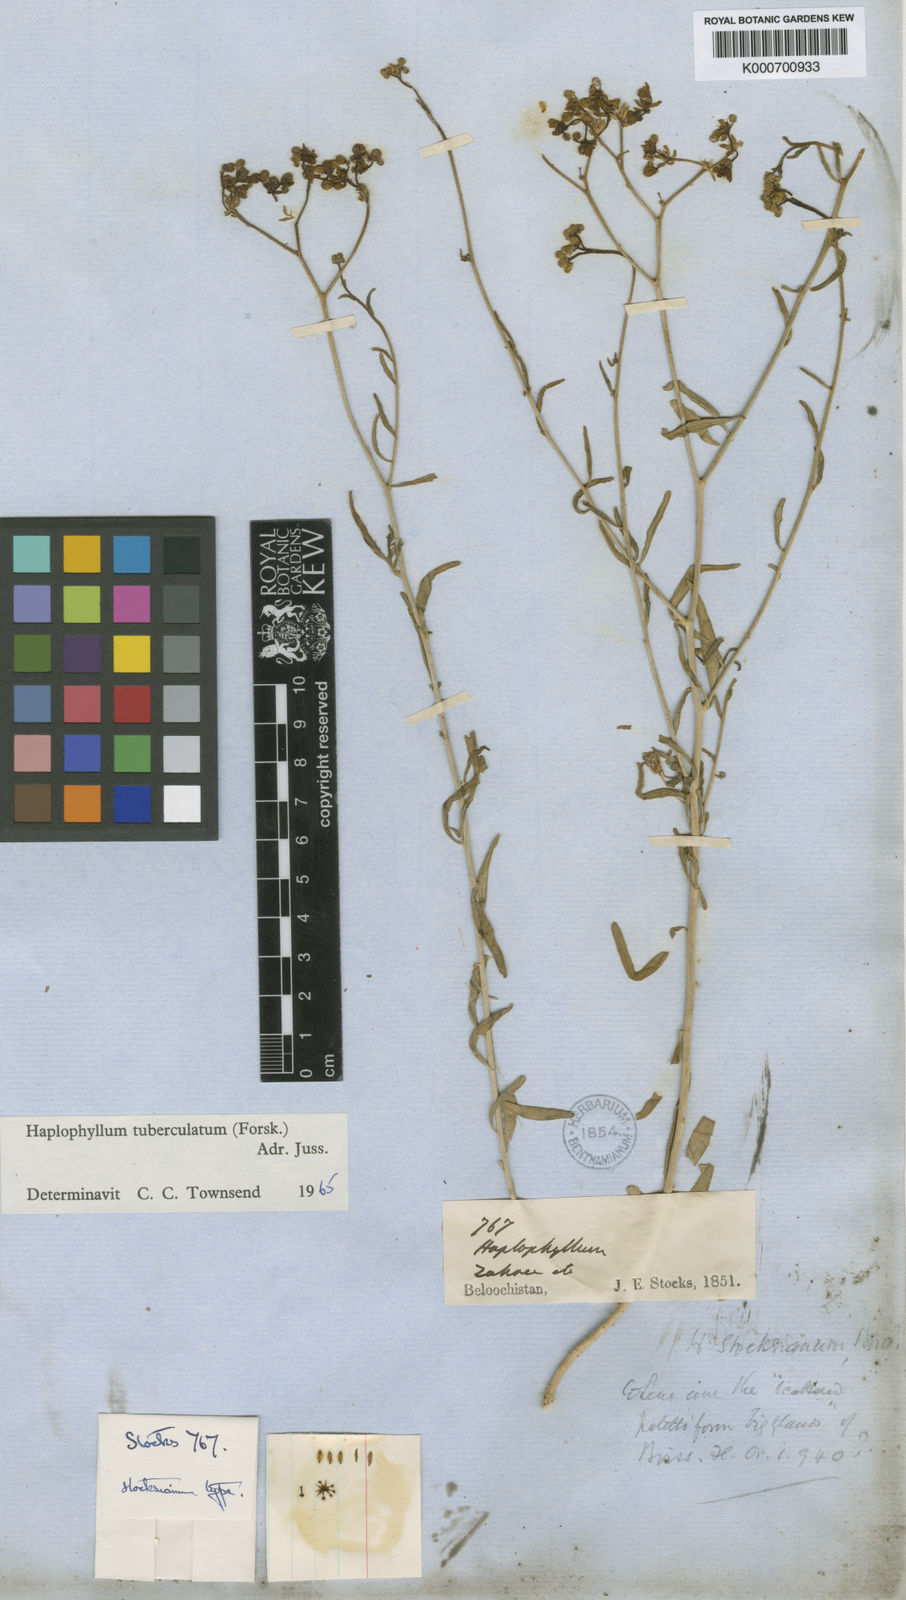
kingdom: Plantae
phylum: Tracheophyta
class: Magnoliopsida
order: Sapindales
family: Rutaceae
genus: Haplophyllum
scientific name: Haplophyllum tuberculatum
